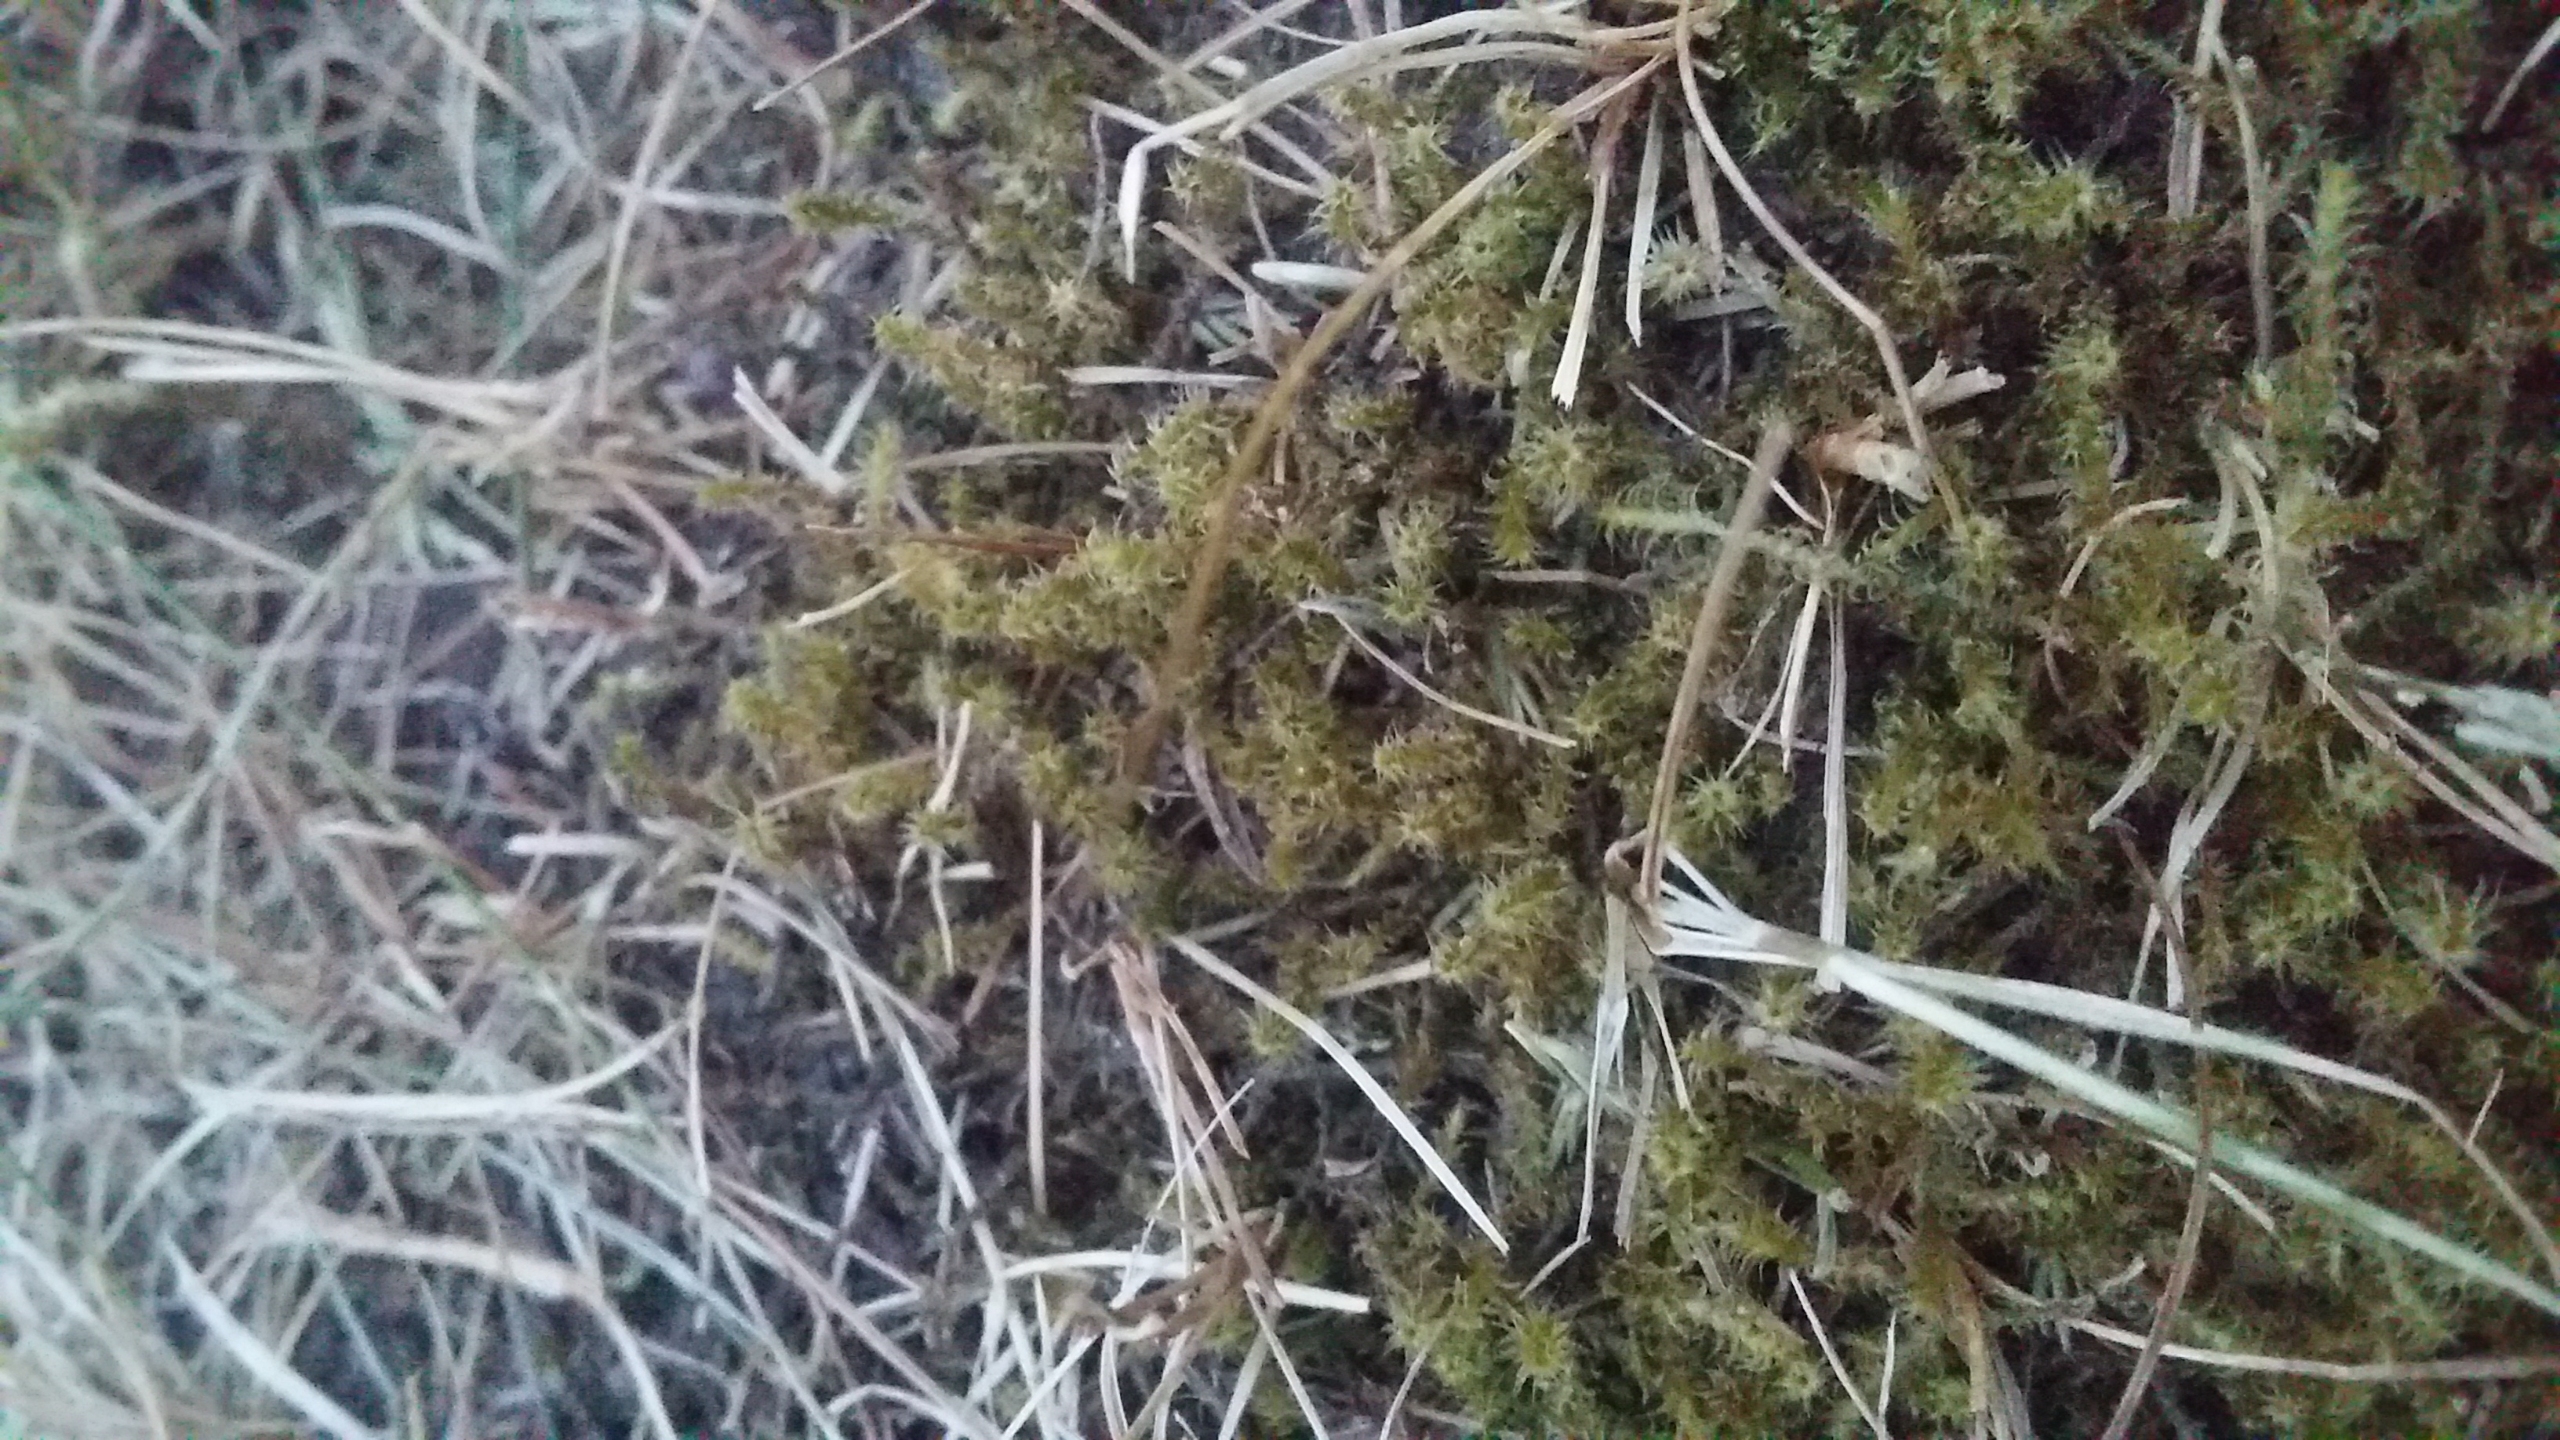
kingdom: Plantae
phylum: Bryophyta
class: Bryopsida
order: Hypnales
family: Hylocomiaceae
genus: Rhytidiadelphus
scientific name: Rhytidiadelphus squarrosus
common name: Plæne-kransemos
